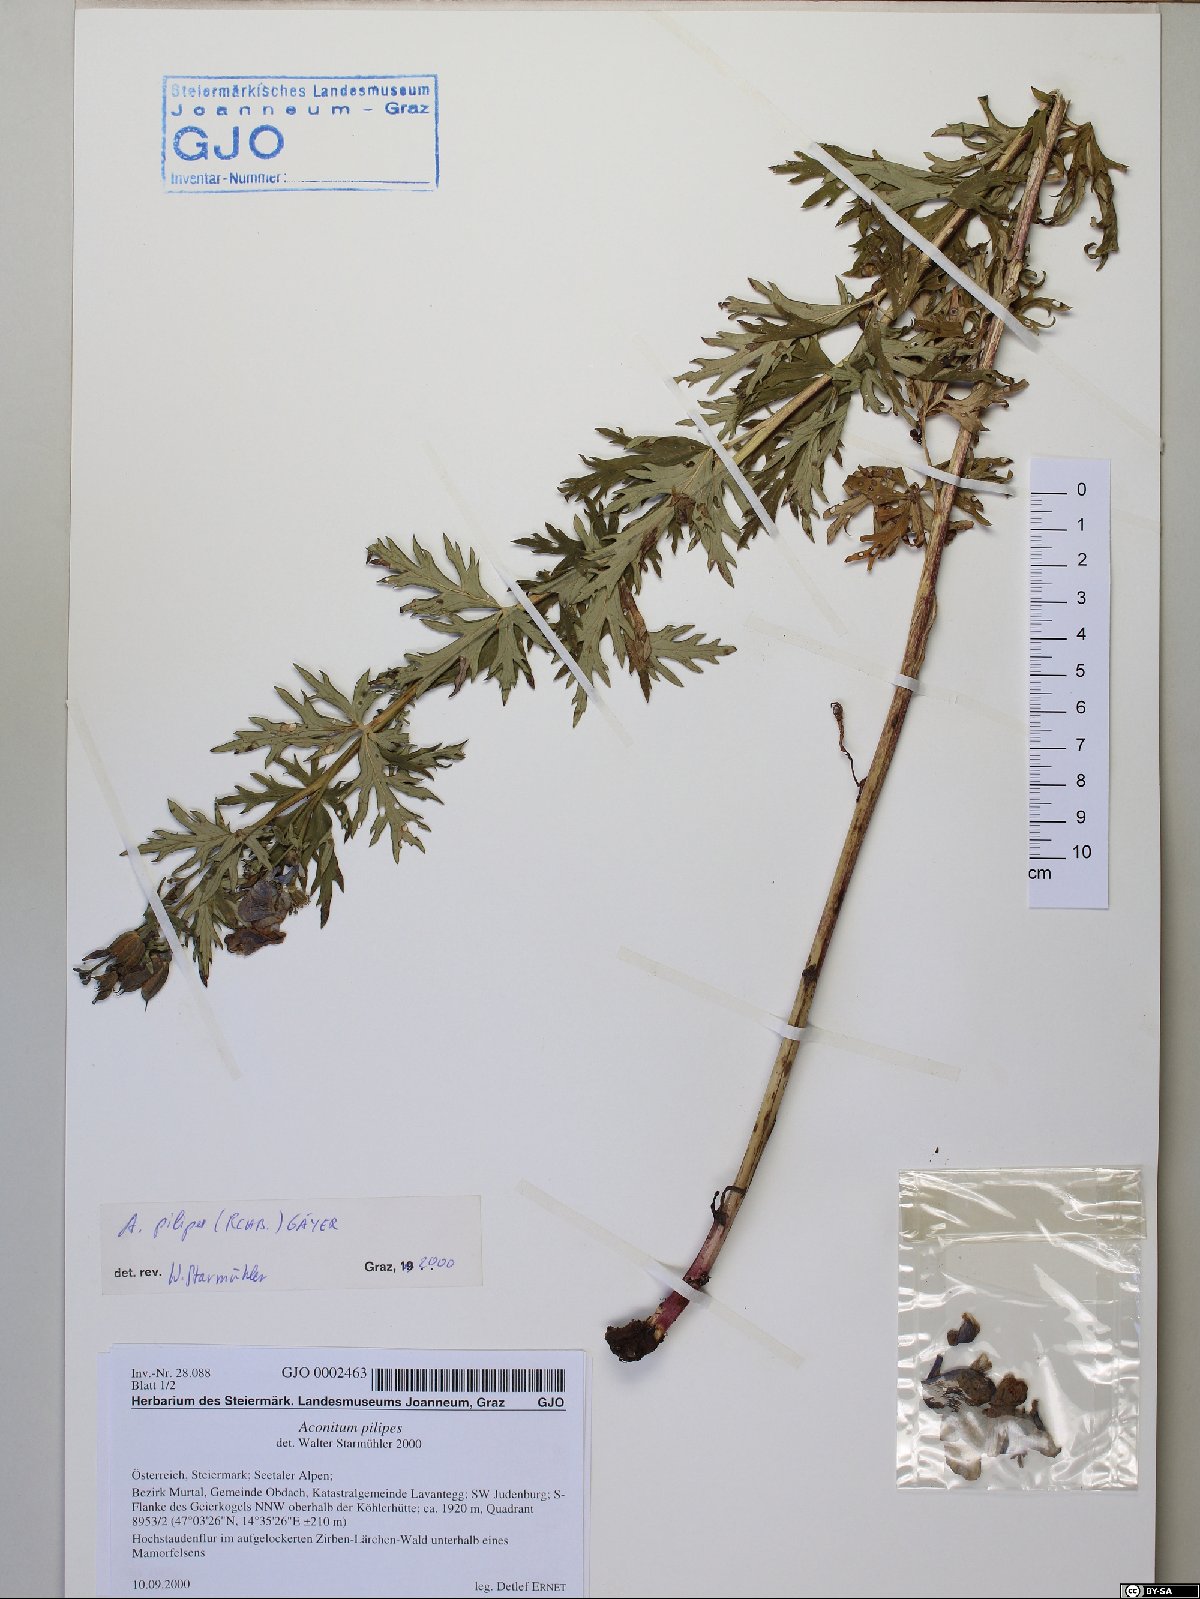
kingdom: Plantae
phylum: Tracheophyta
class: Magnoliopsida
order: Ranunculales
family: Ranunculaceae
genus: Aconitum
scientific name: Aconitum pilipes
